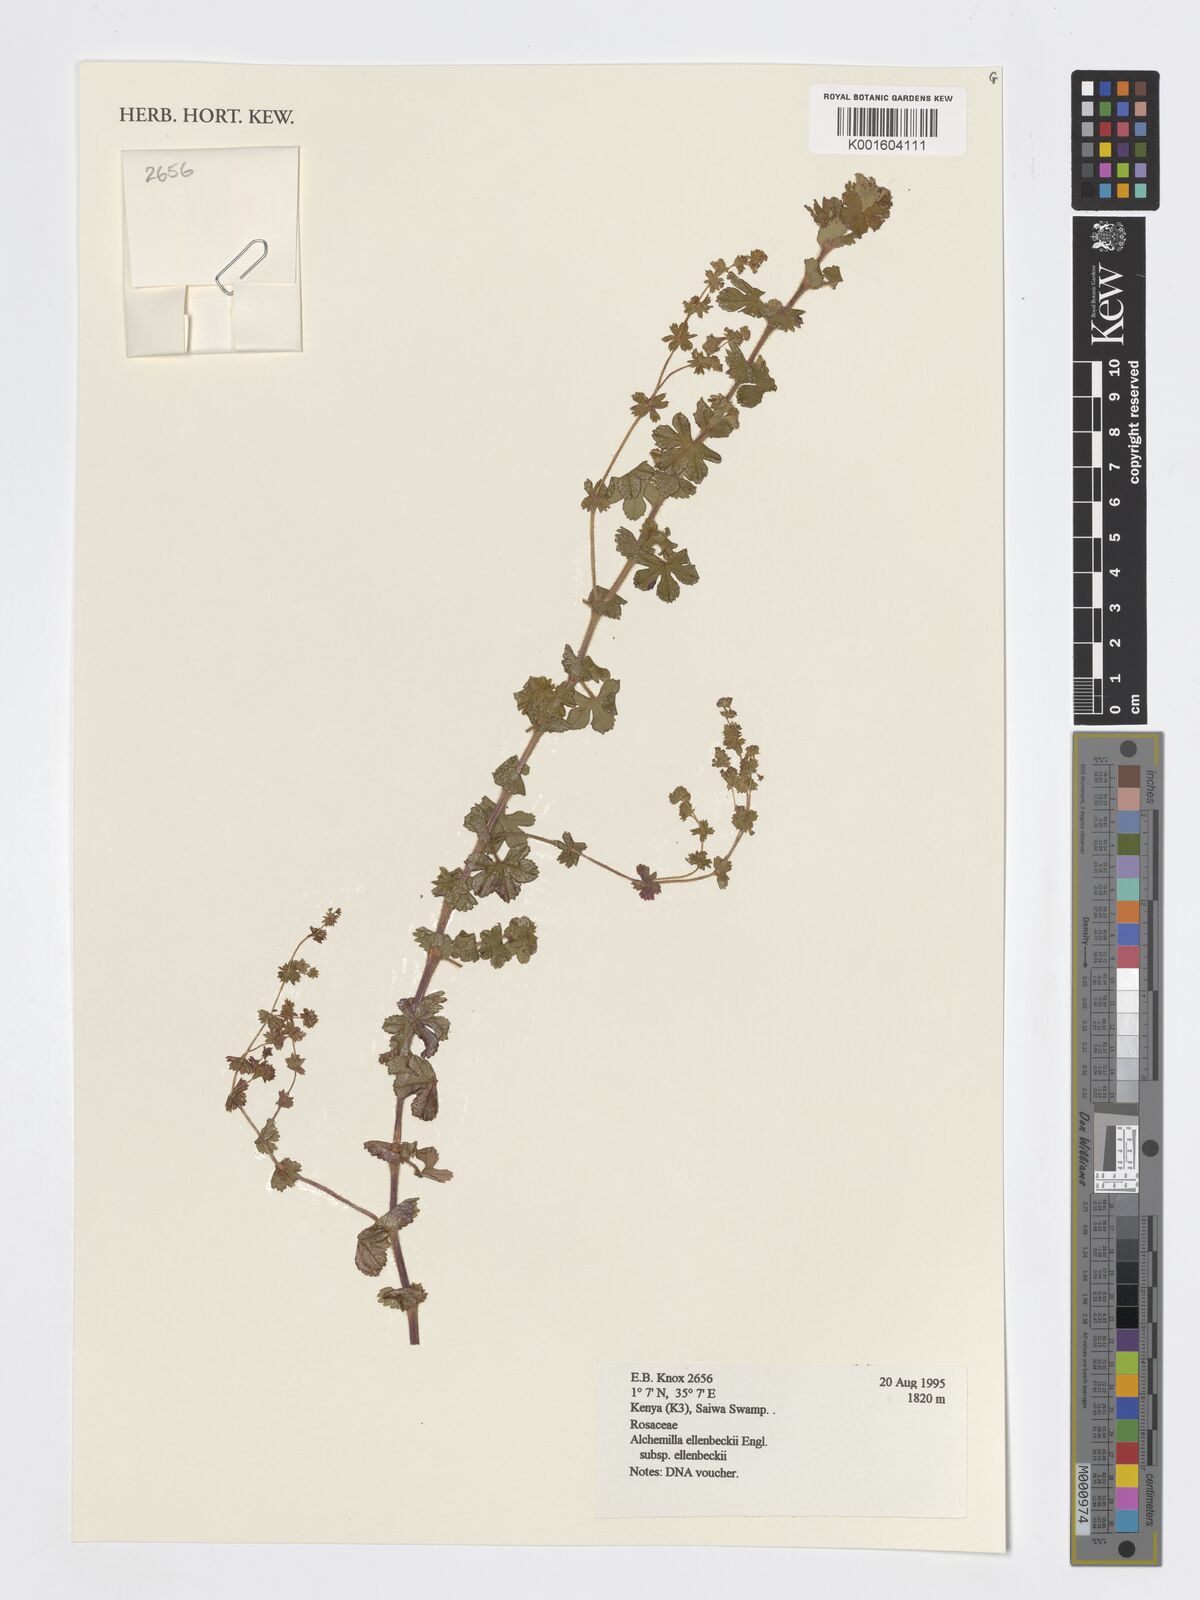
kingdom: Plantae
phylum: Tracheophyta
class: Magnoliopsida
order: Rosales
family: Rosaceae
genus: Alchemilla
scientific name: Alchemilla ellenbeckii
